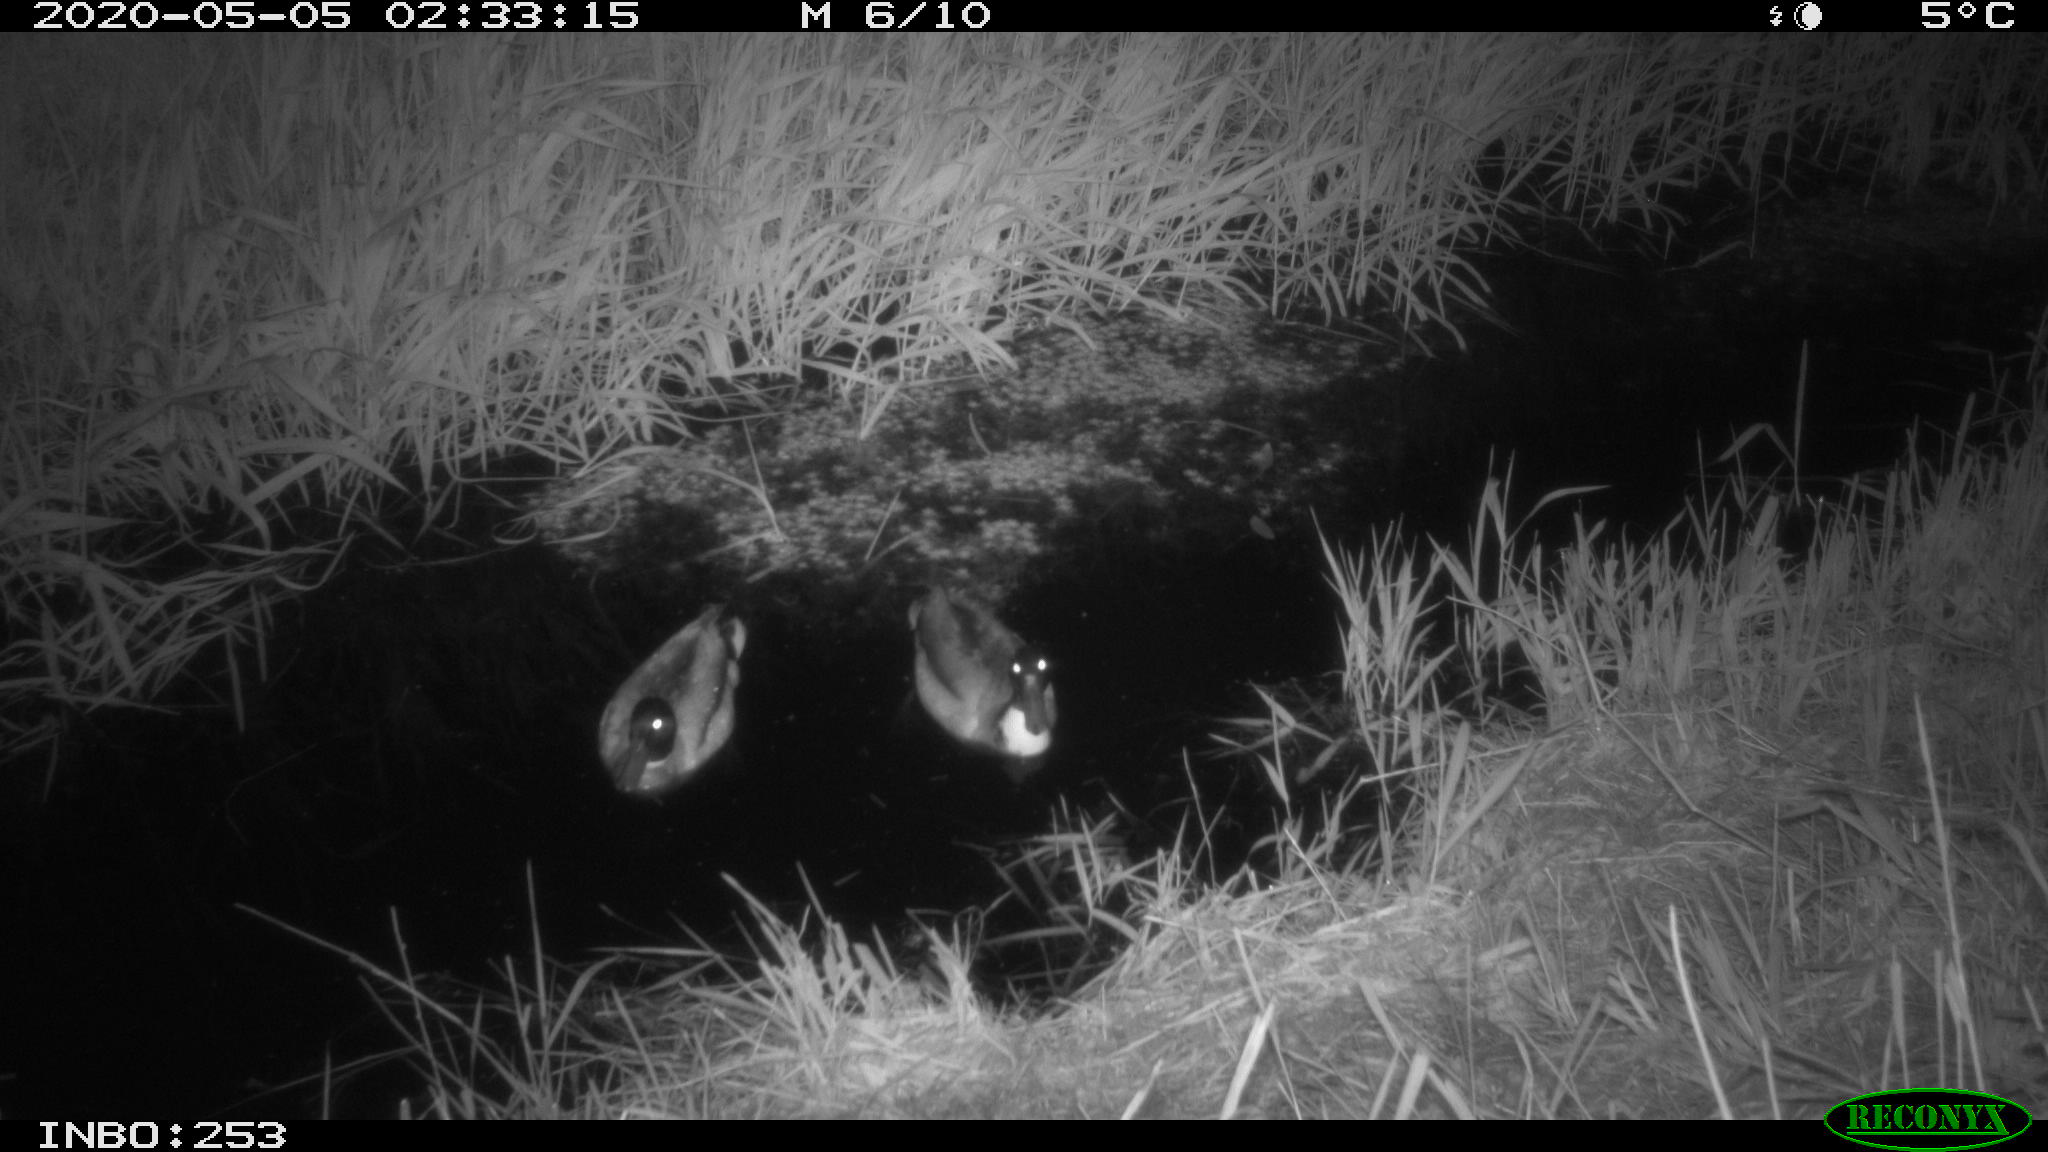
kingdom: Animalia
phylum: Chordata
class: Aves
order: Anseriformes
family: Anatidae
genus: Anas
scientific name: Anas platyrhynchos
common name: Mallard
